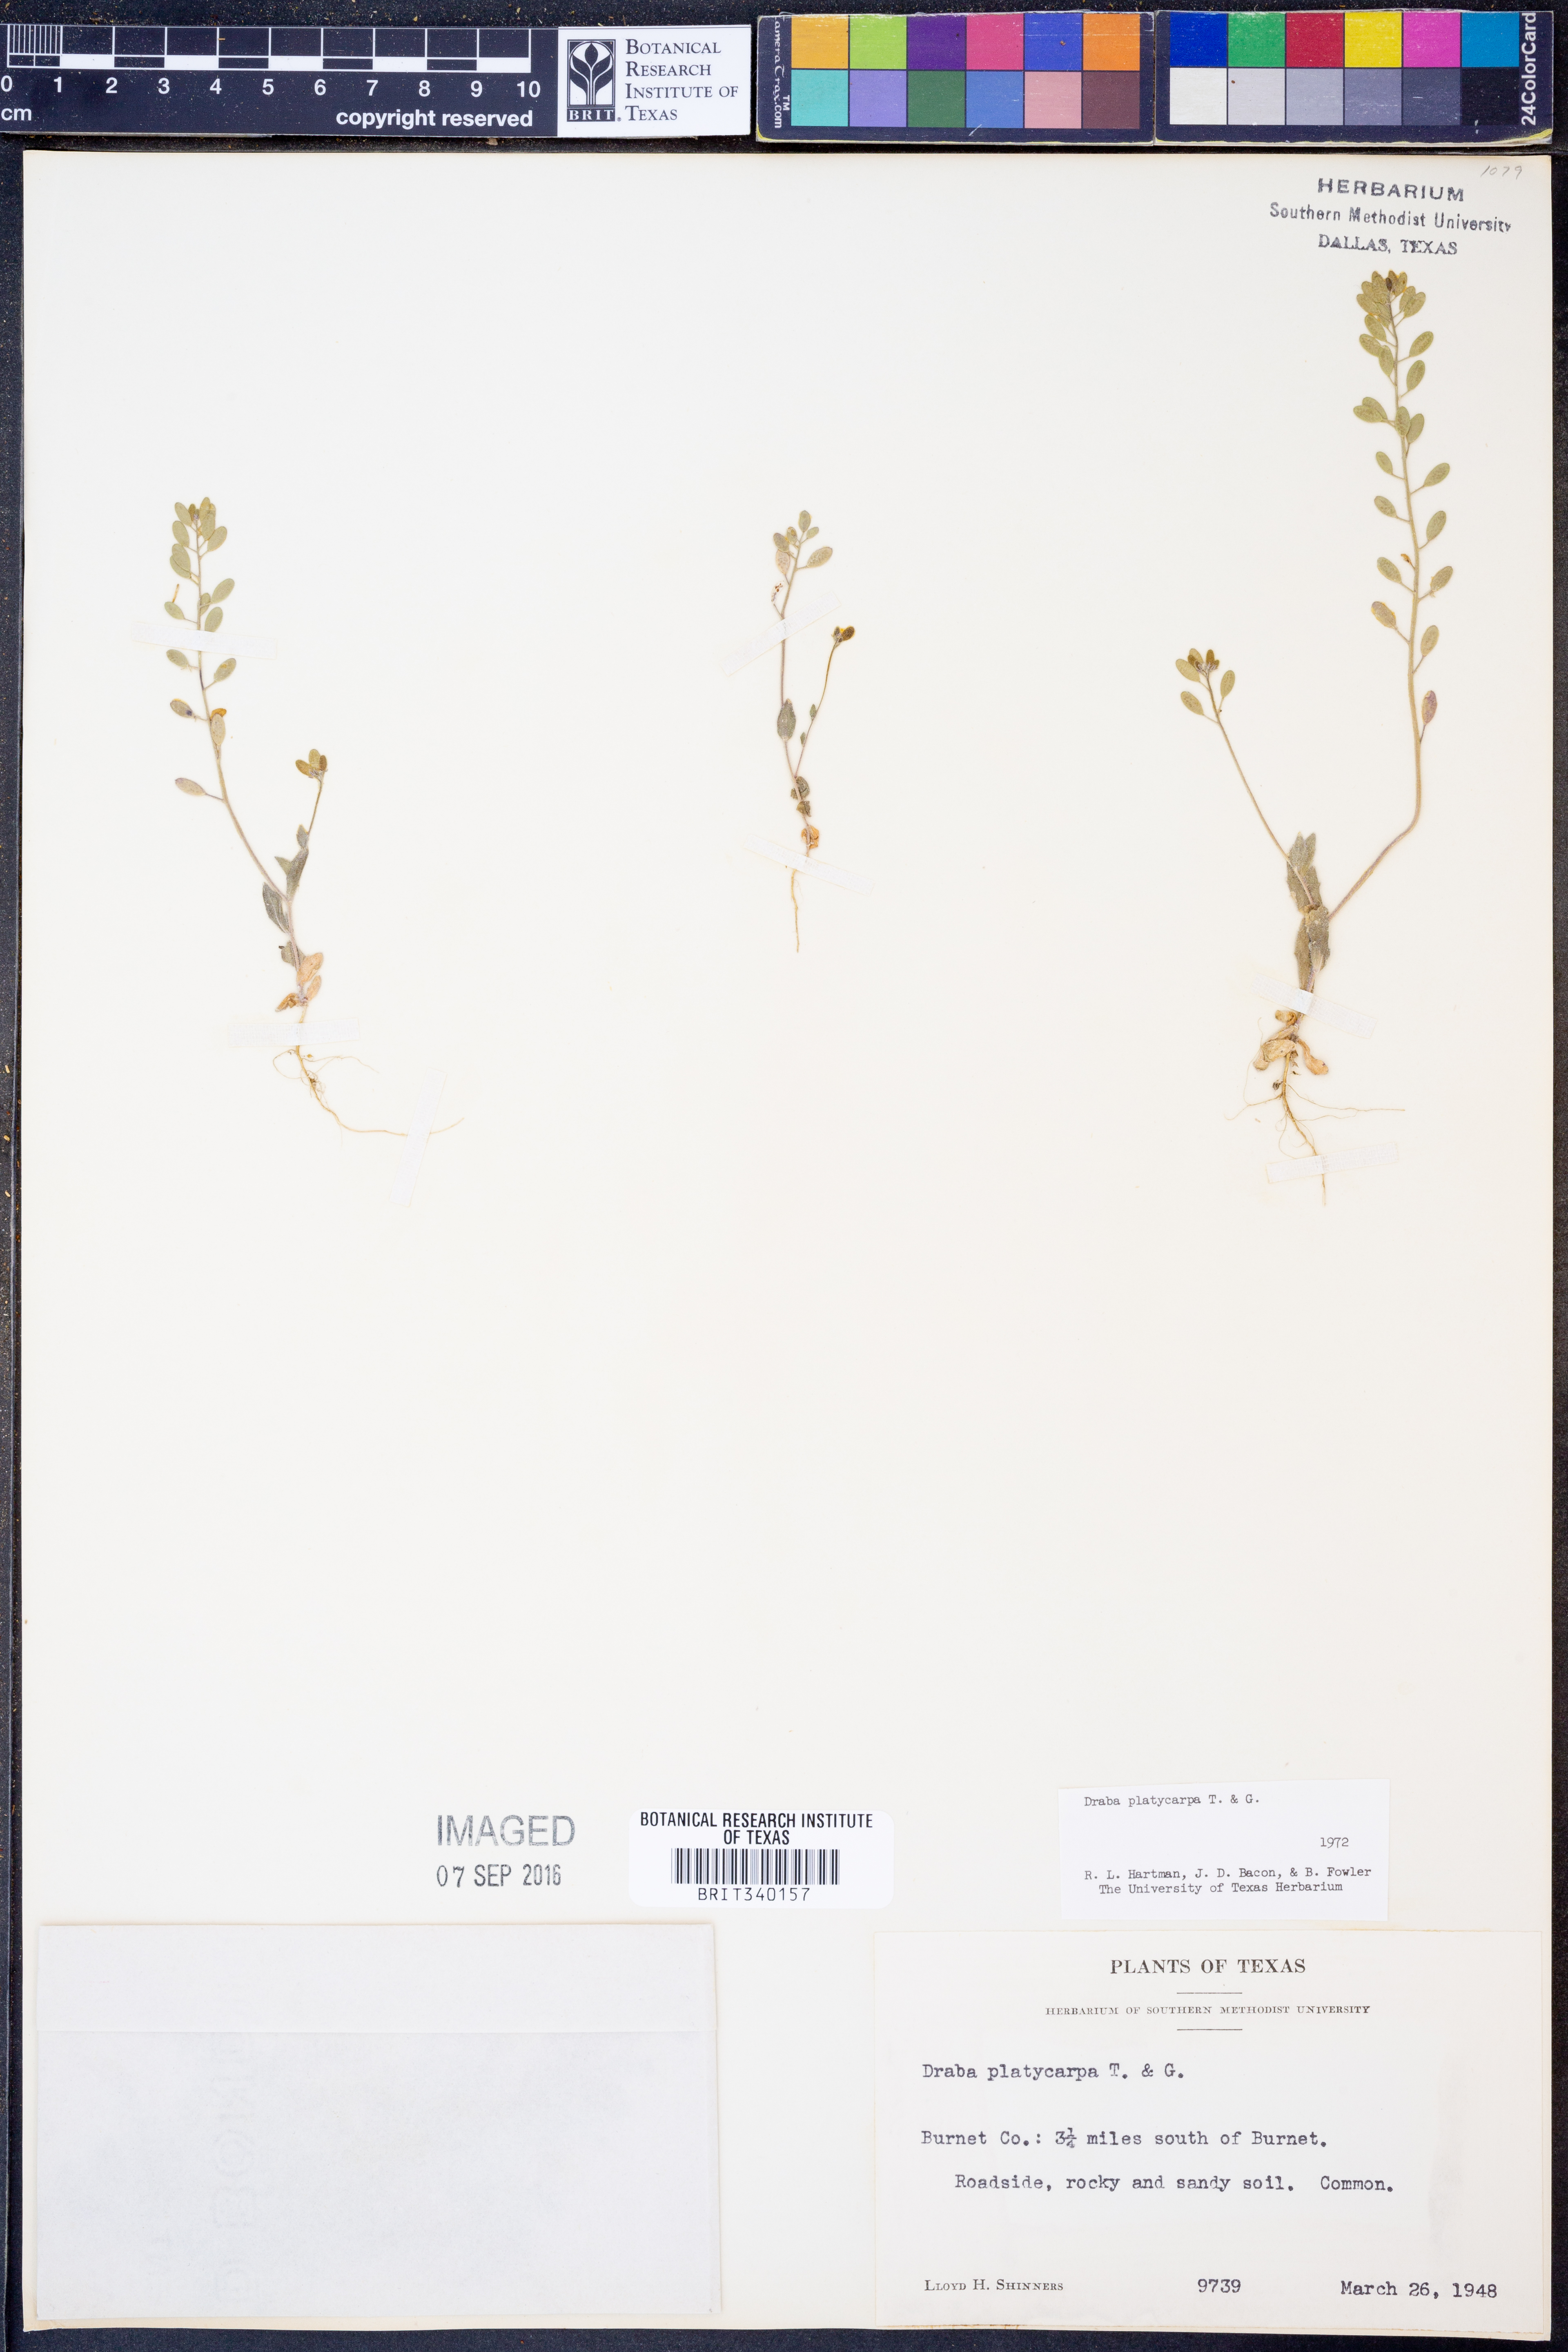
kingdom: Plantae
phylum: Tracheophyta
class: Magnoliopsida
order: Brassicales
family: Brassicaceae
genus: Tomostima
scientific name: Tomostima platycarpa
